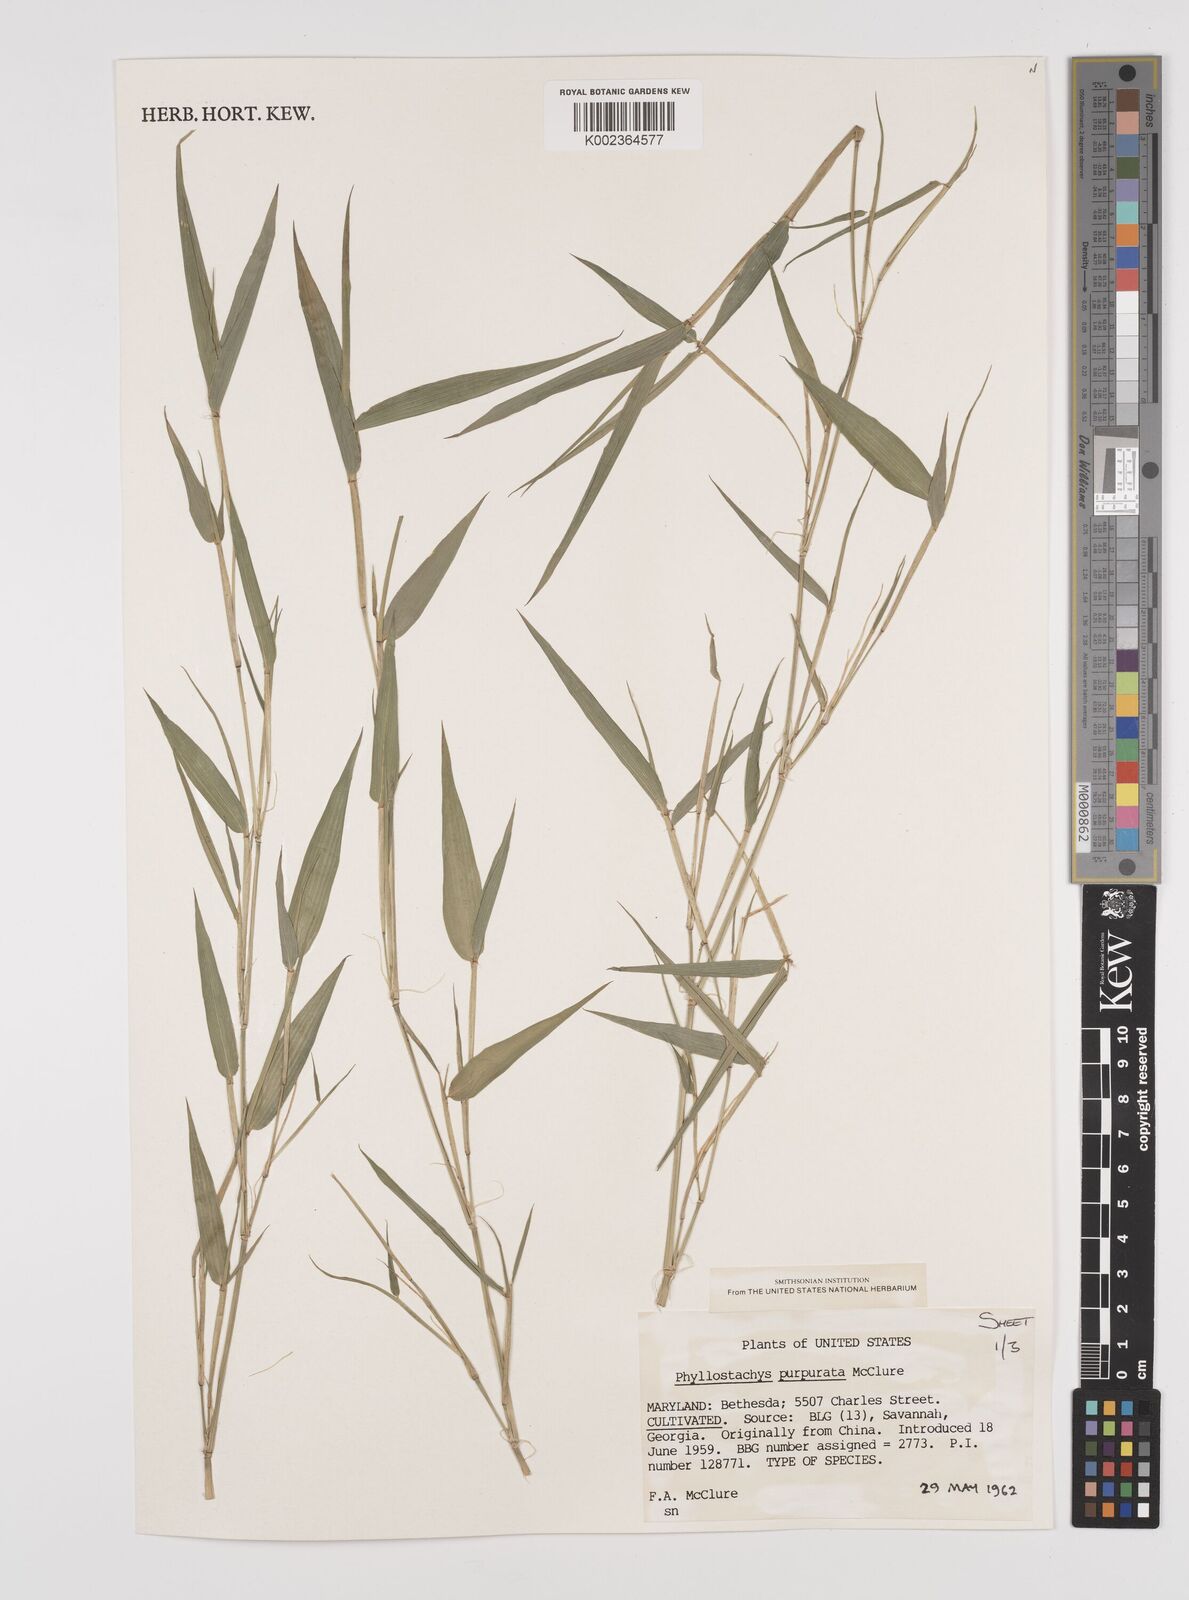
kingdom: Plantae
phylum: Tracheophyta
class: Liliopsida
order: Poales
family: Poaceae
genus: Phyllostachys
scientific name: Phyllostachys heteroclada
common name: Fishscale bamboo
